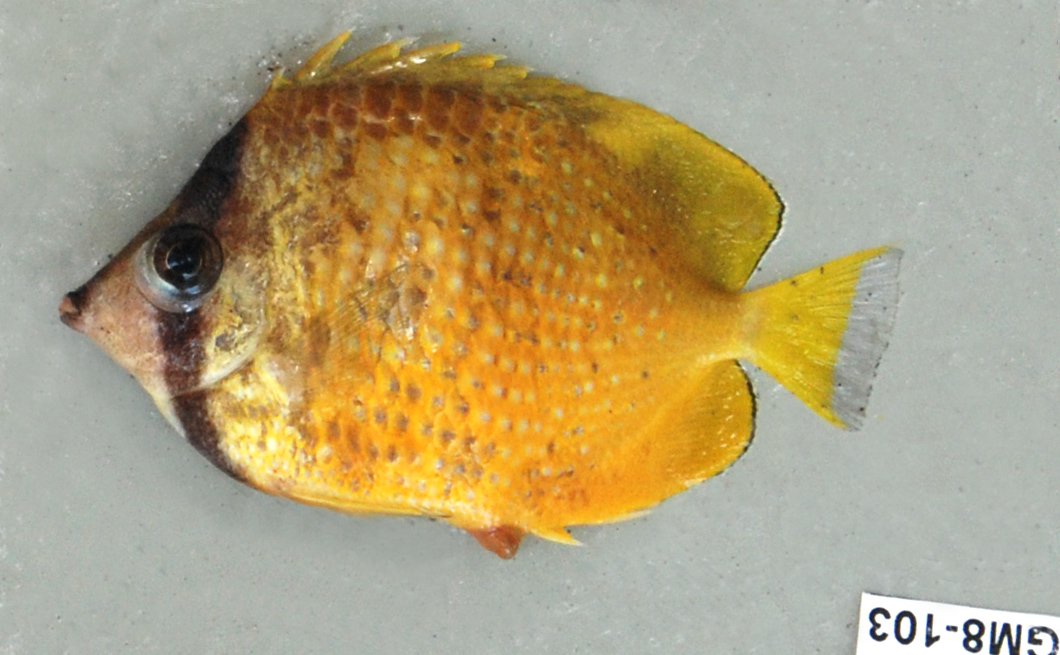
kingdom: Animalia
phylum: Chordata
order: Perciformes
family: Chaetodontidae
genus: Chaetodon
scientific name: Chaetodon kleinii
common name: Klein's butterflyfish
